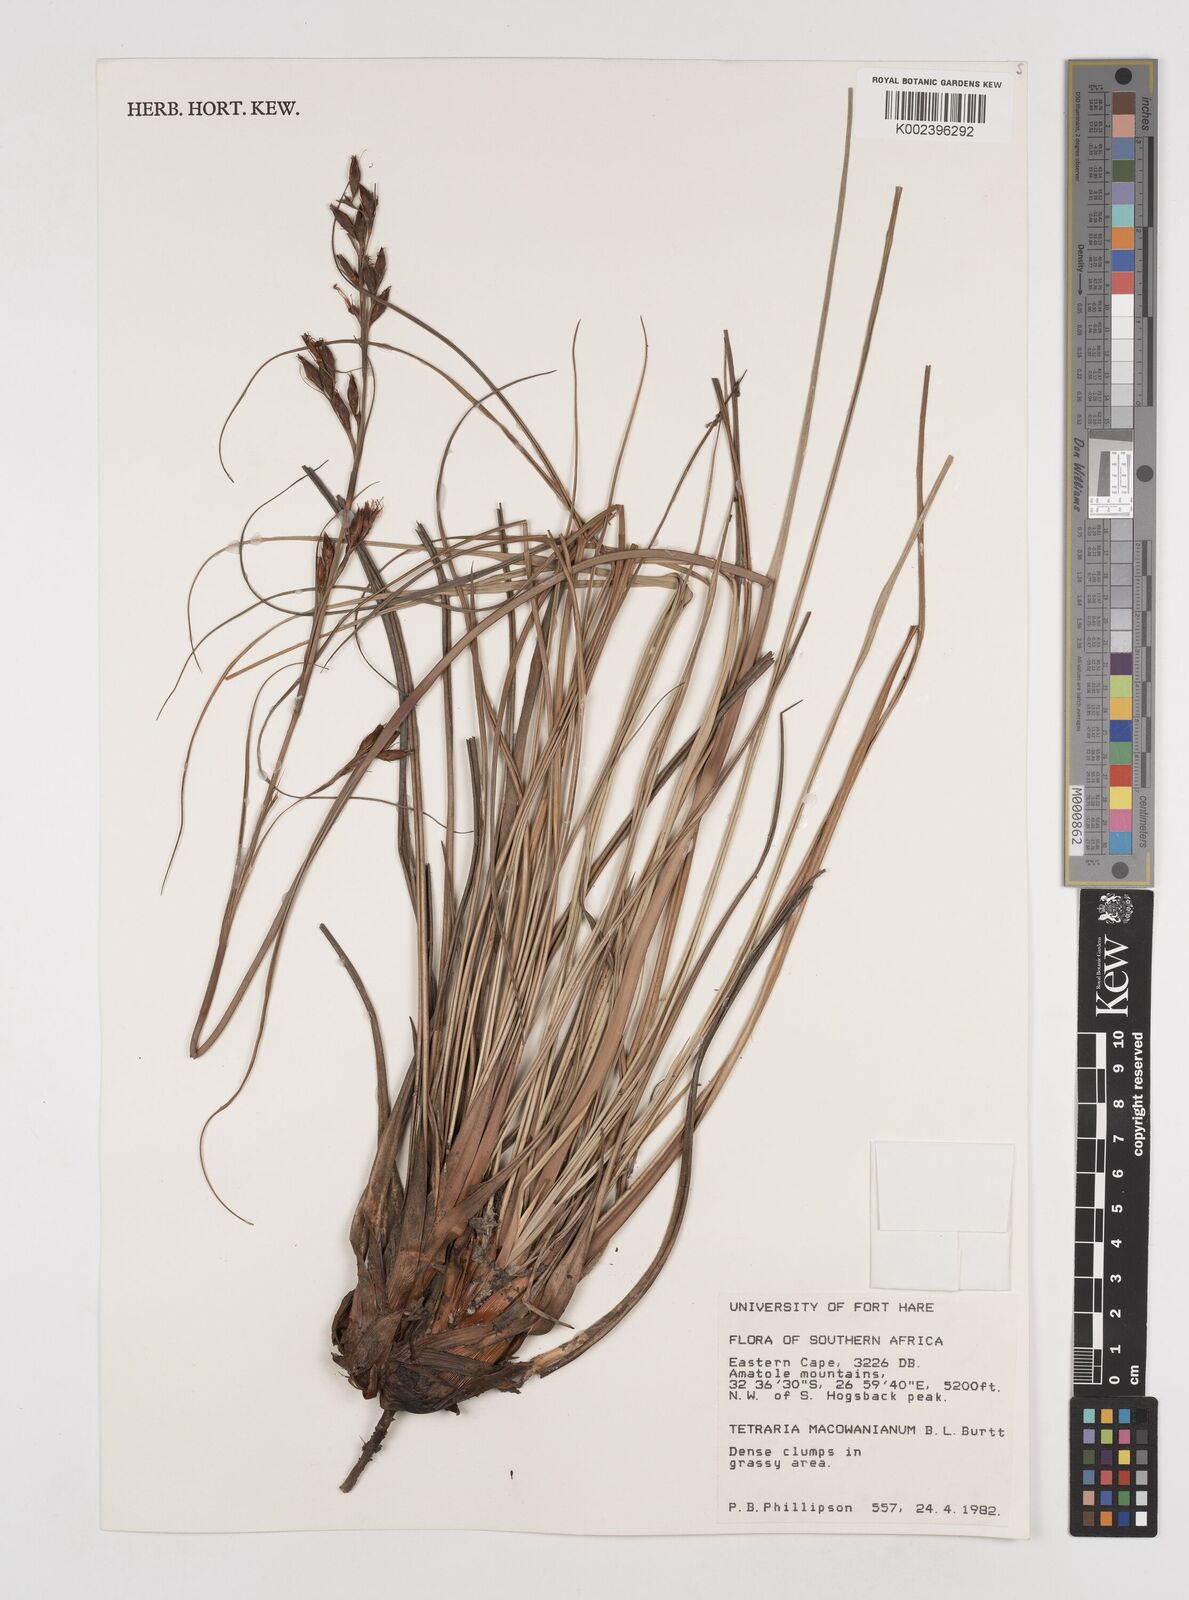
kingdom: Plantae
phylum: Tracheophyta
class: Liliopsida
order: Poales
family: Cyperaceae
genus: Tetraria
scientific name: Tetraria macowaniana
